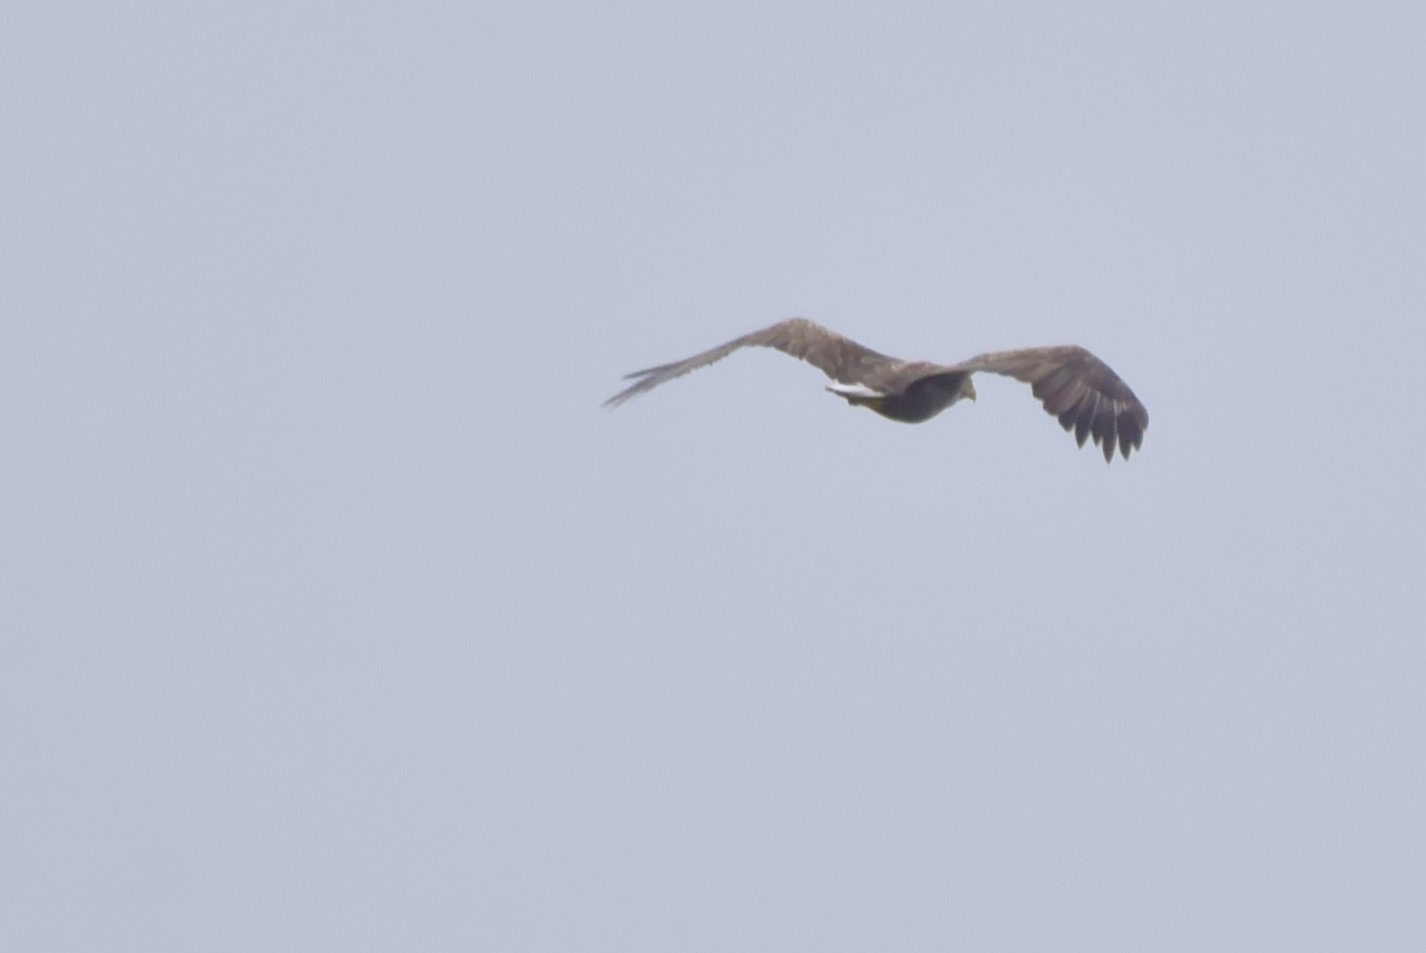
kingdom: Animalia
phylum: Chordata
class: Aves
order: Accipitriformes
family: Accipitridae
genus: Haliaeetus
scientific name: Haliaeetus albicilla
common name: Havørn
